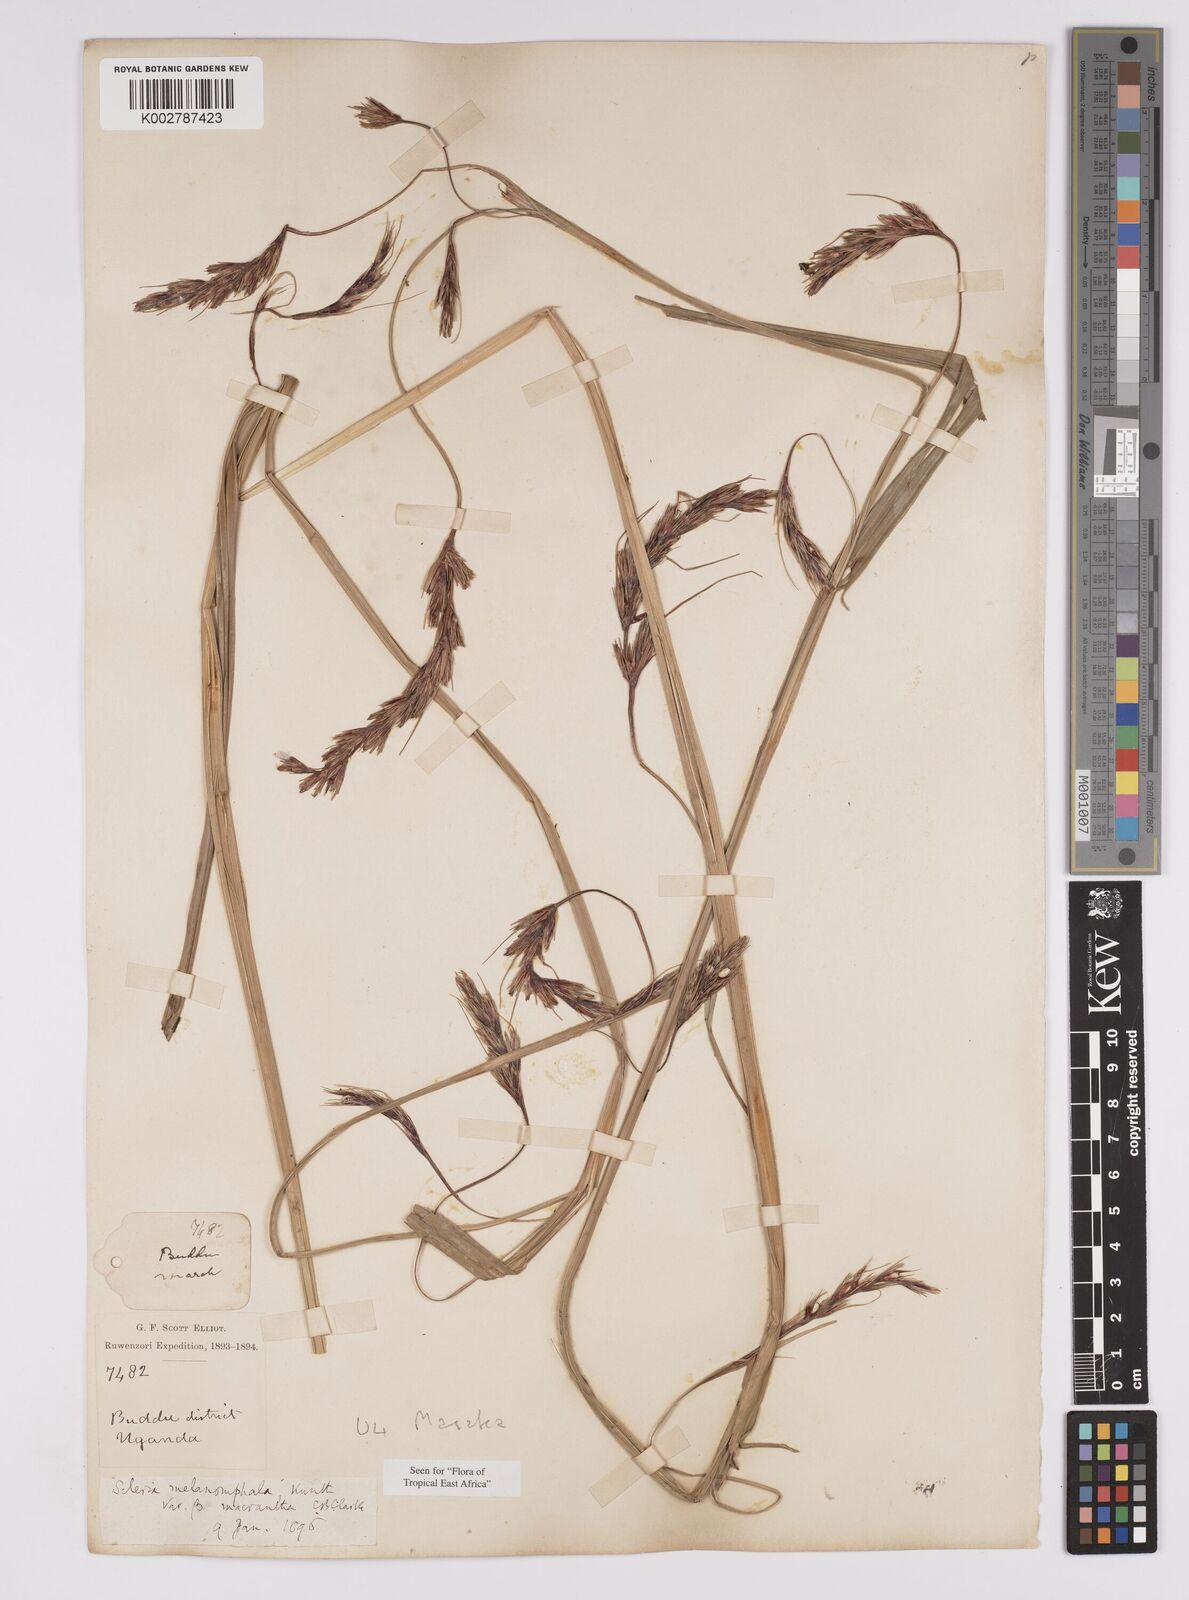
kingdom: Plantae
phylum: Tracheophyta
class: Liliopsida
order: Poales
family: Cyperaceae
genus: Scleria
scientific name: Scleria melanomphala
